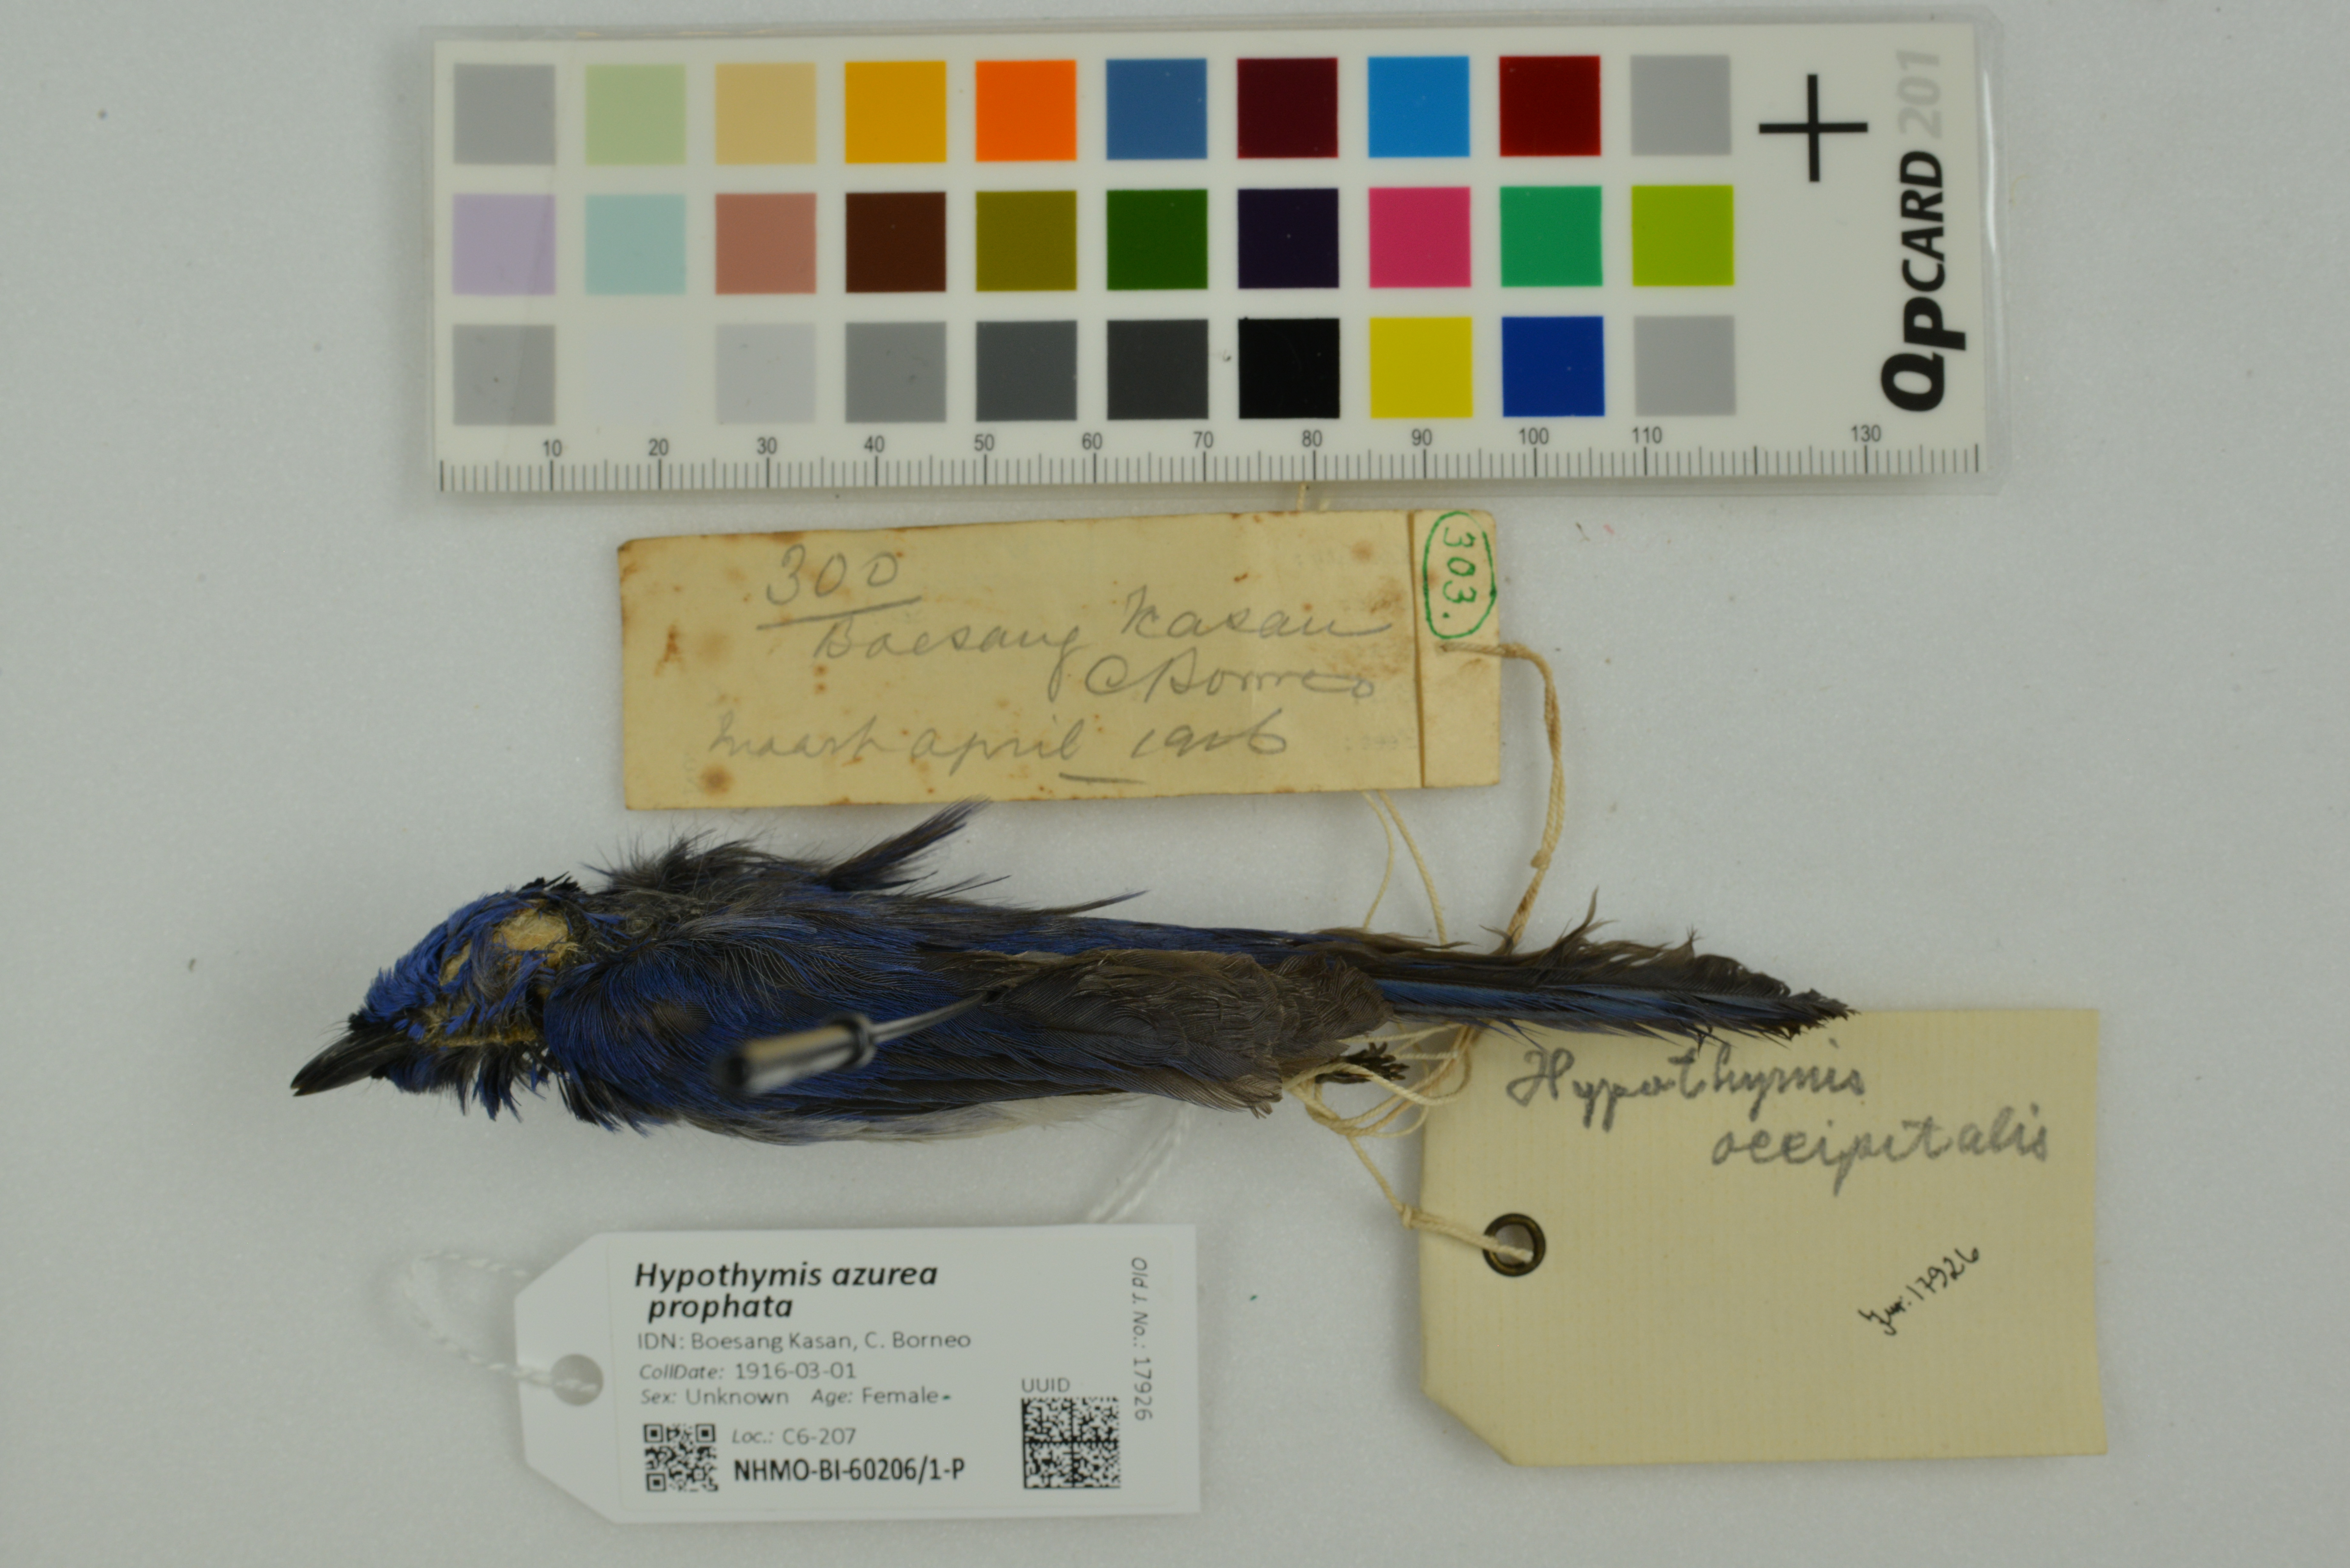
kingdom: Animalia
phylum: Chordata
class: Aves
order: Passeriformes
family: Monarchidae
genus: Hypothymis
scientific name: Hypothymis azurea
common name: Black-naped monarch
